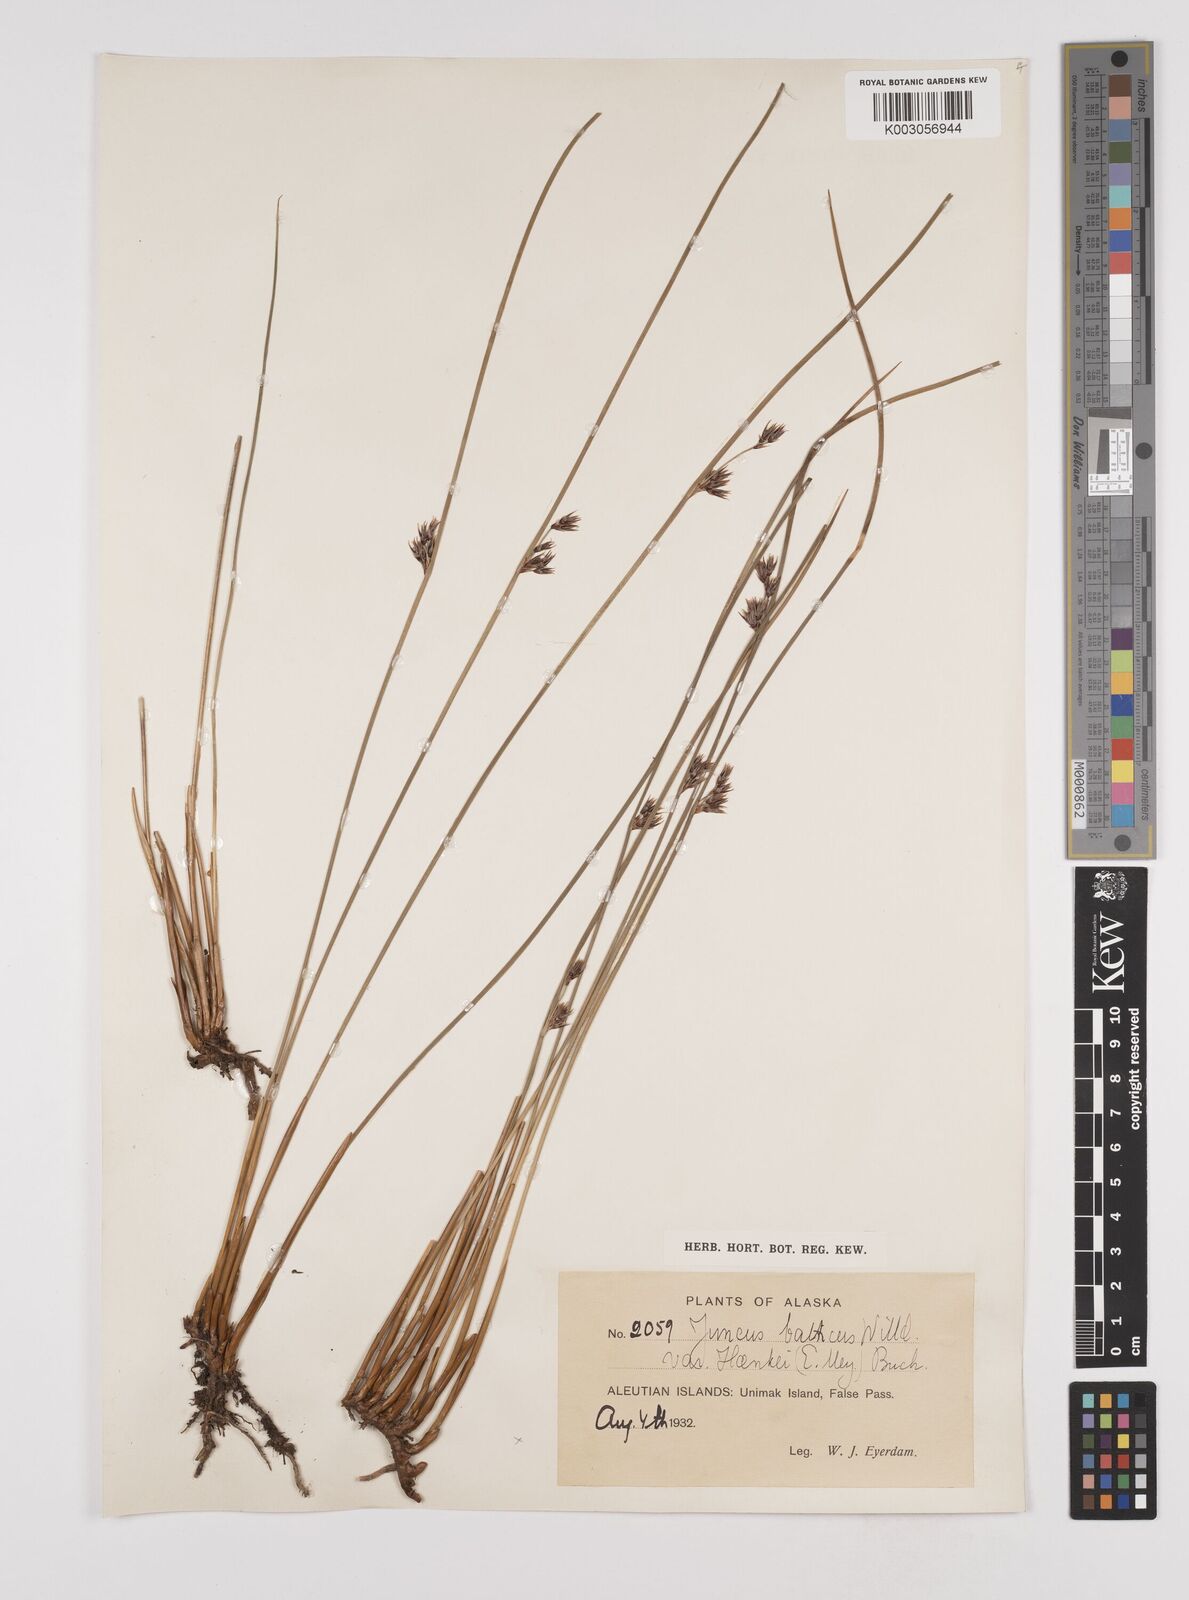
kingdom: Plantae
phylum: Tracheophyta
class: Liliopsida
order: Poales
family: Juncaceae
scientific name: Juncaceae
